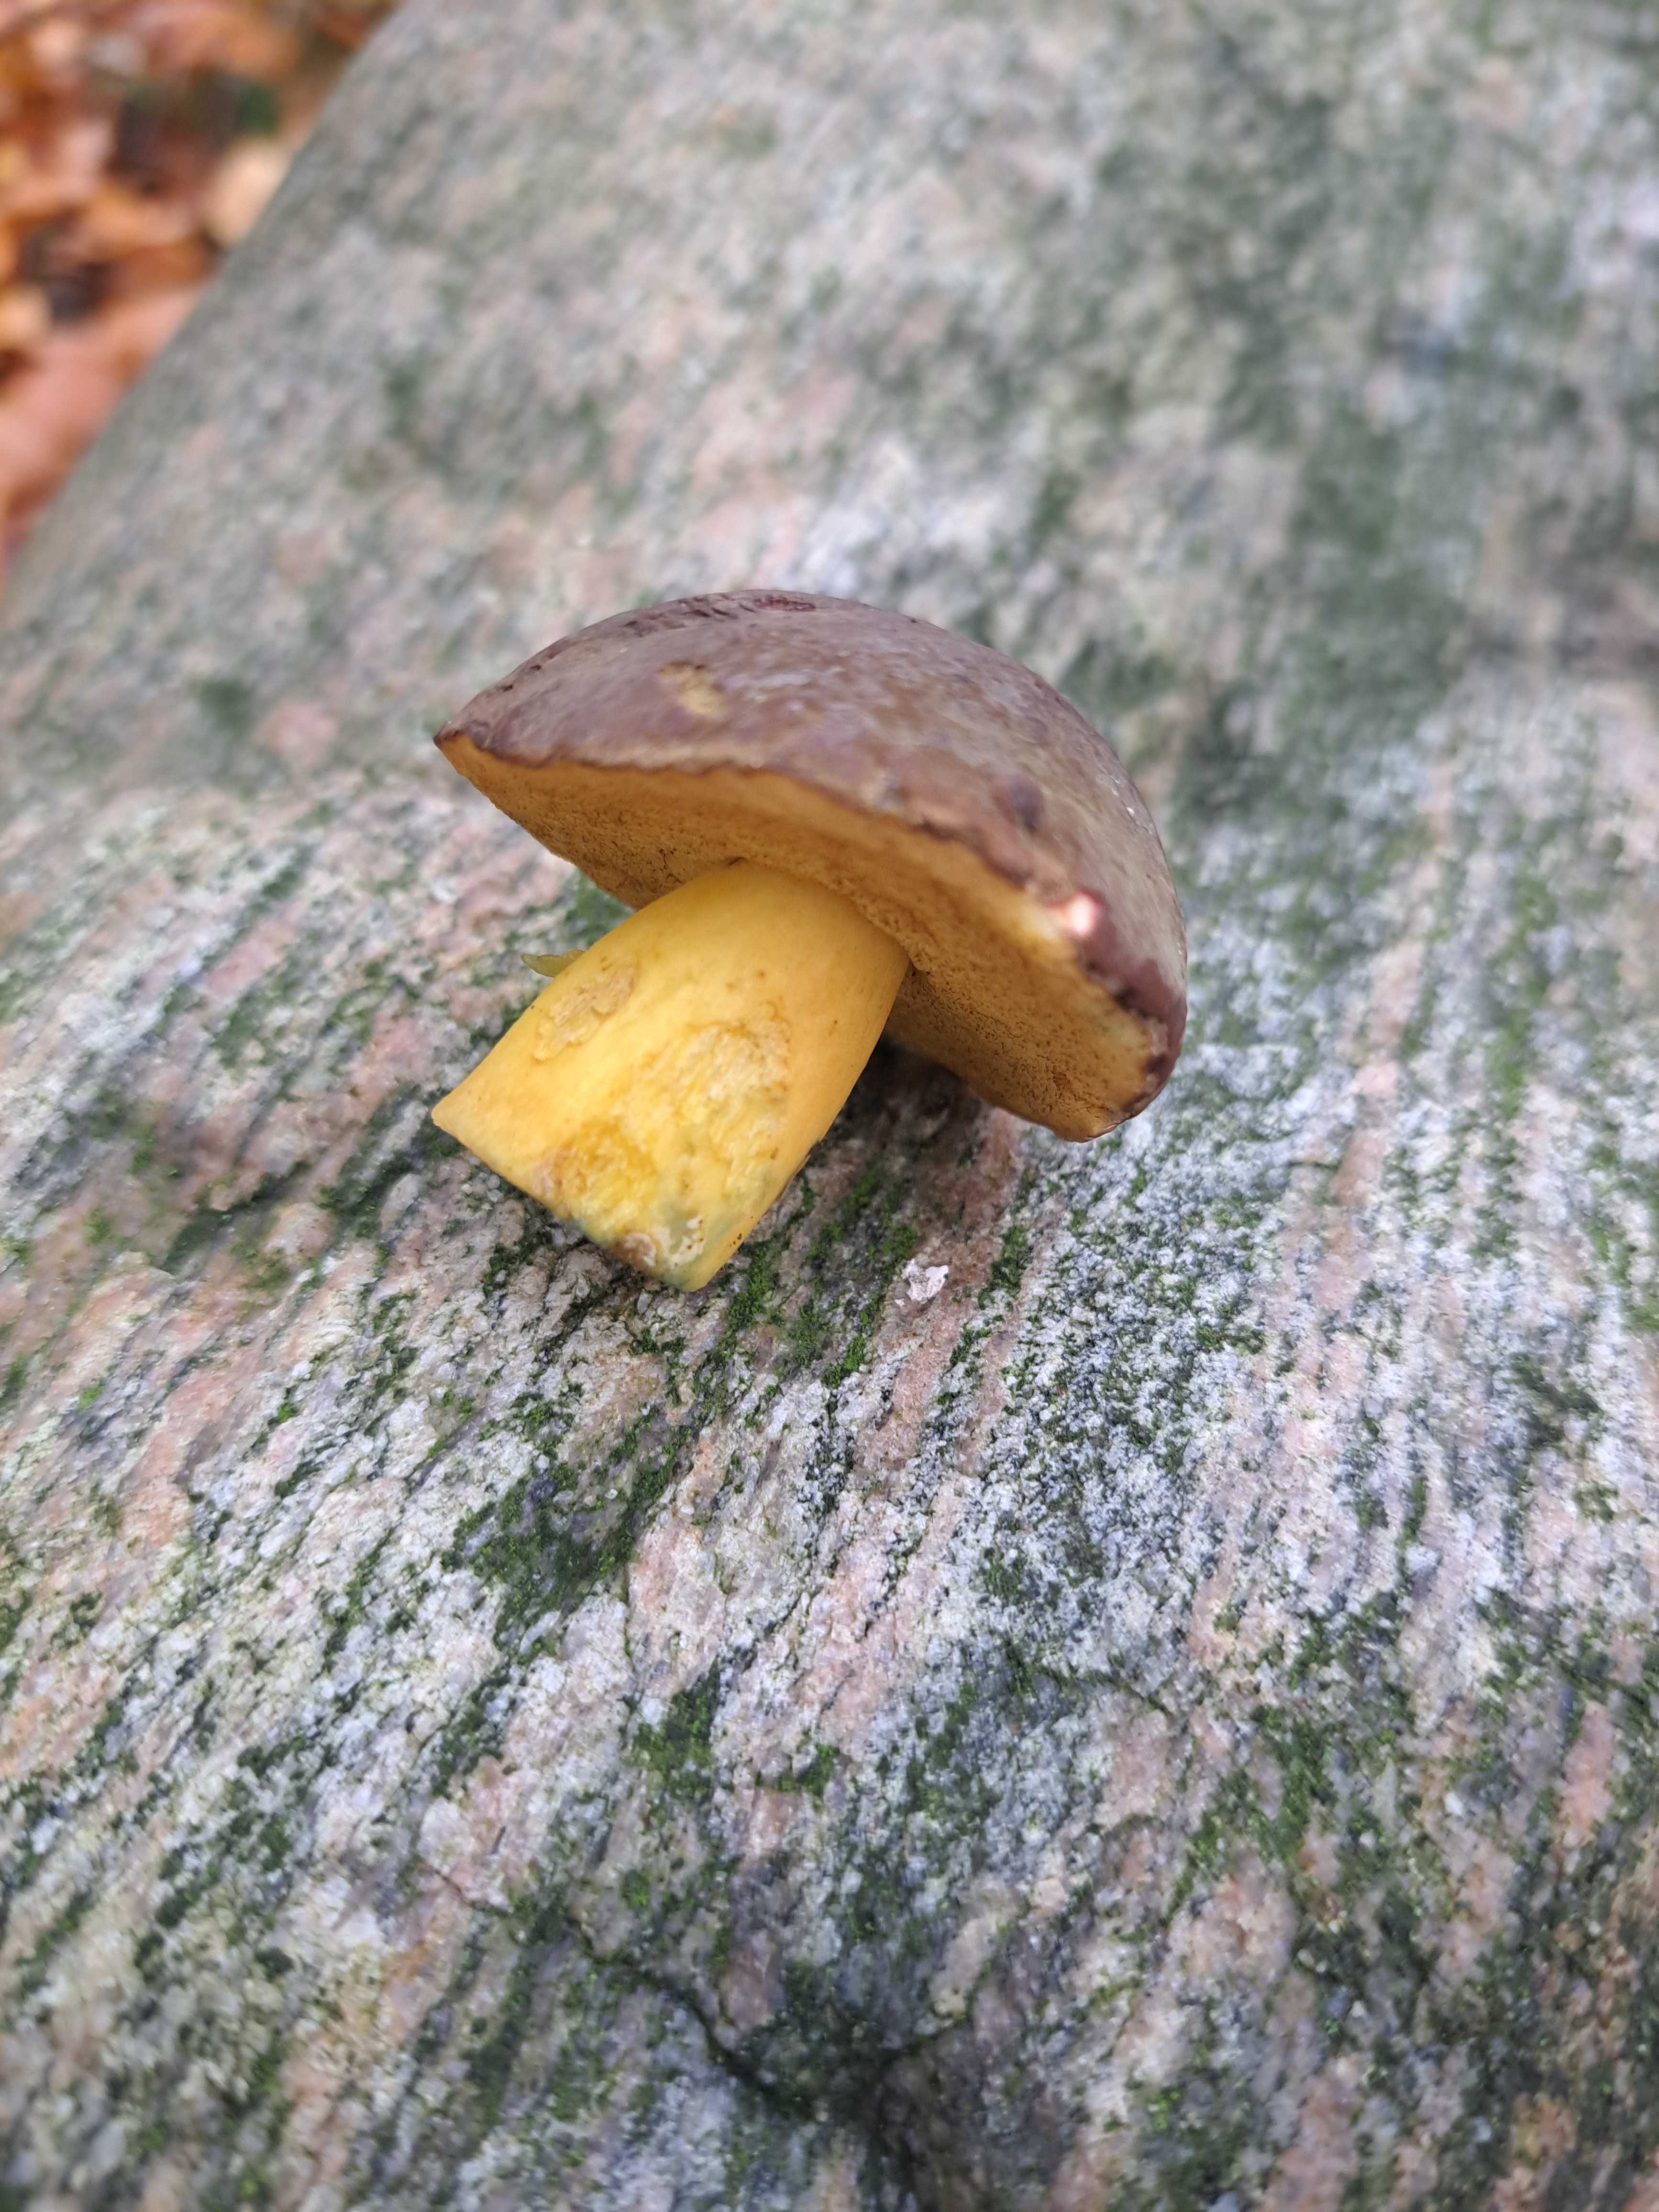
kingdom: Fungi
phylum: Basidiomycota
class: Agaricomycetes
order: Boletales
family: Boletaceae
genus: Xerocomellus
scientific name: Xerocomellus pruinatus
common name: dugget rørhat
